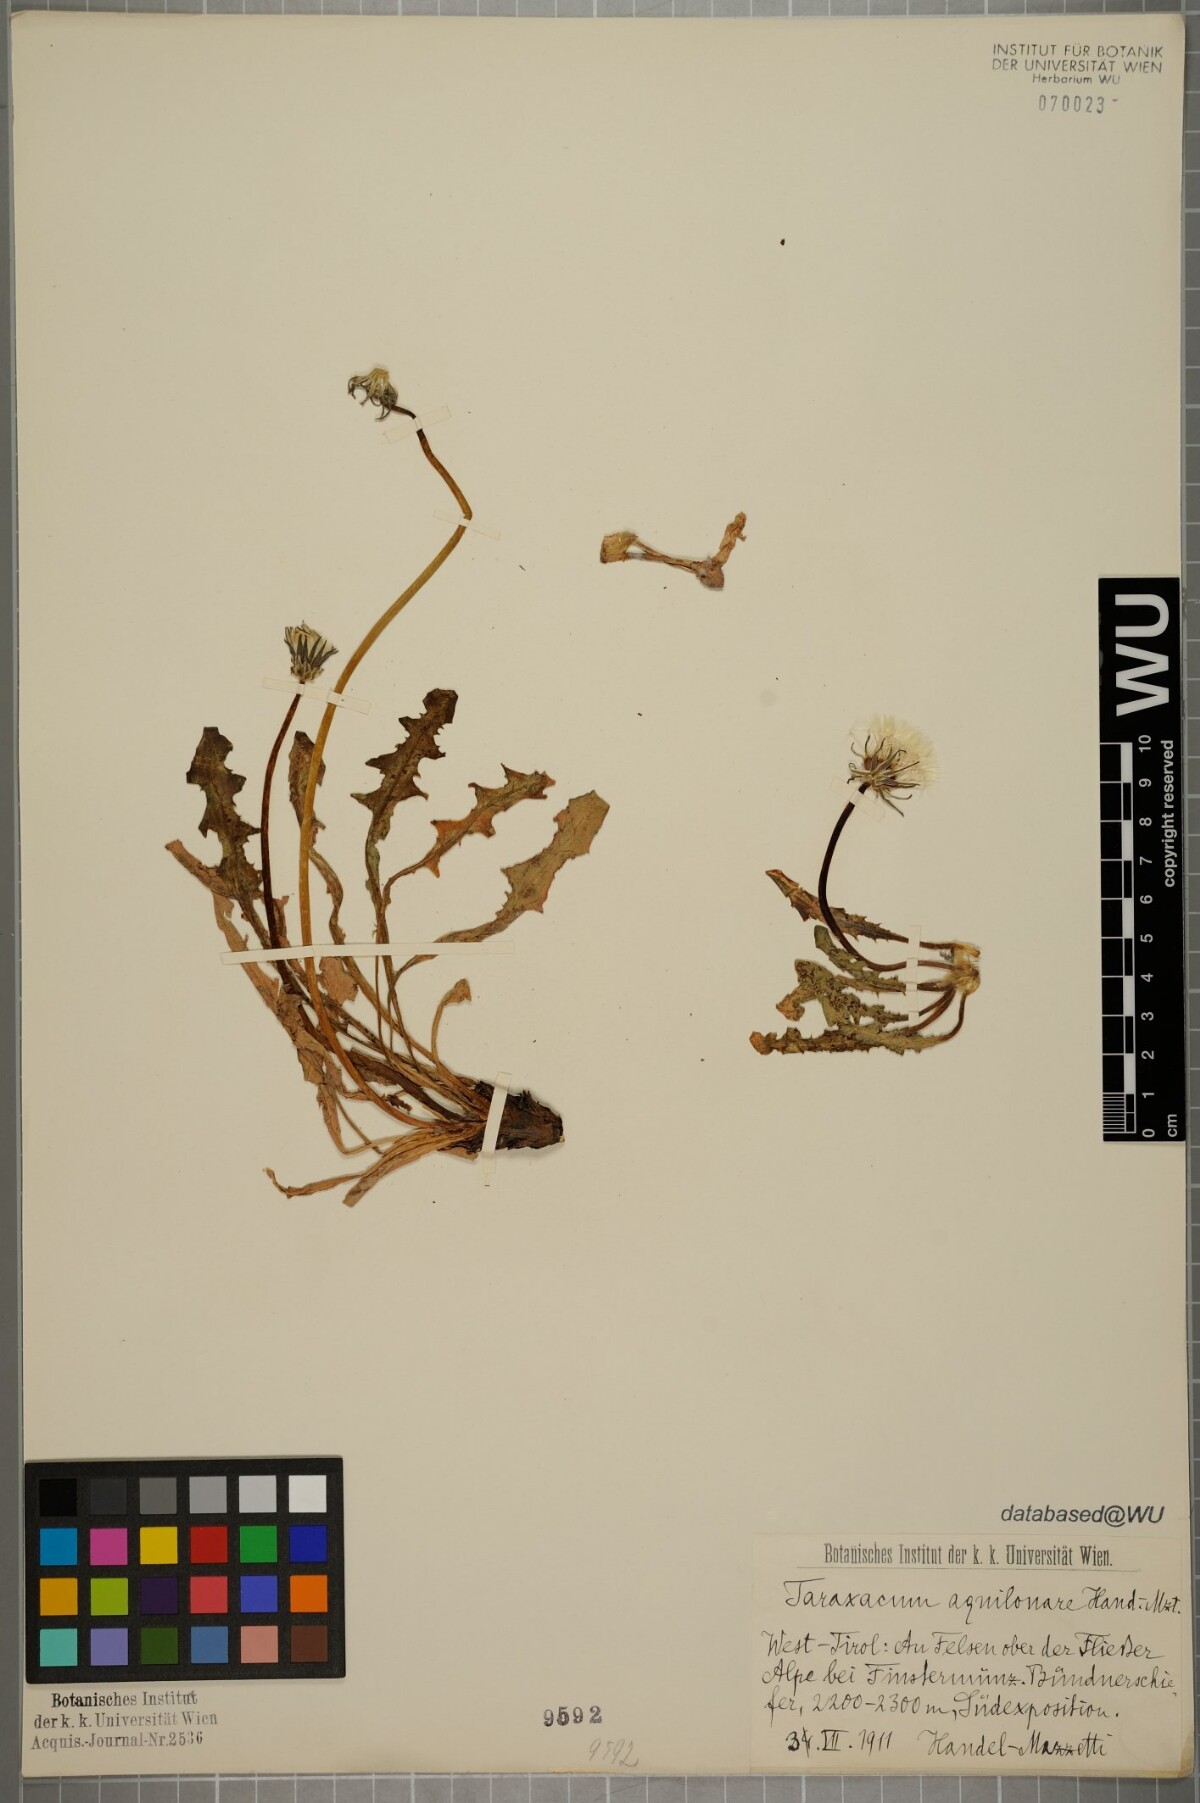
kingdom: Plantae
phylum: Tracheophyta
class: Magnoliopsida
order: Asterales
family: Asteraceae
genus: Taraxacum
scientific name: Taraxacum aquilonare
